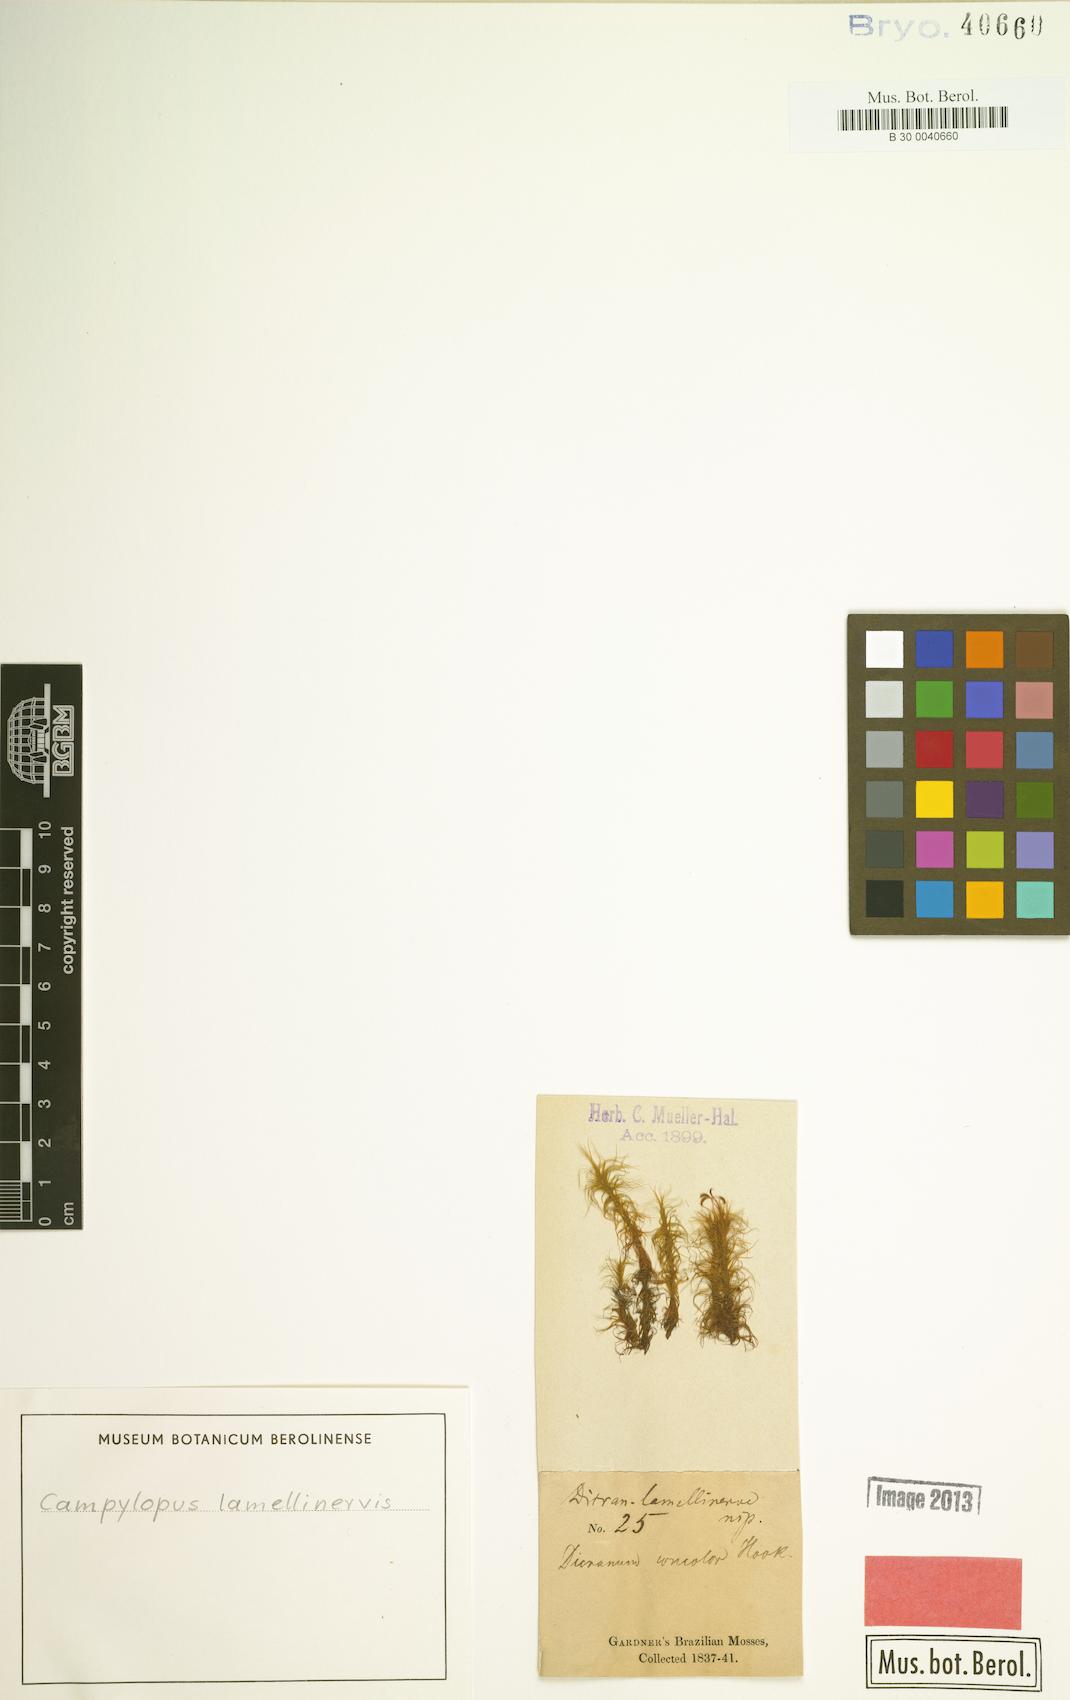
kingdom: Plantae
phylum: Bryophyta
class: Bryopsida
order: Dicranales
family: Leucobryaceae
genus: Campylopus
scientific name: Campylopus lamellinervis
